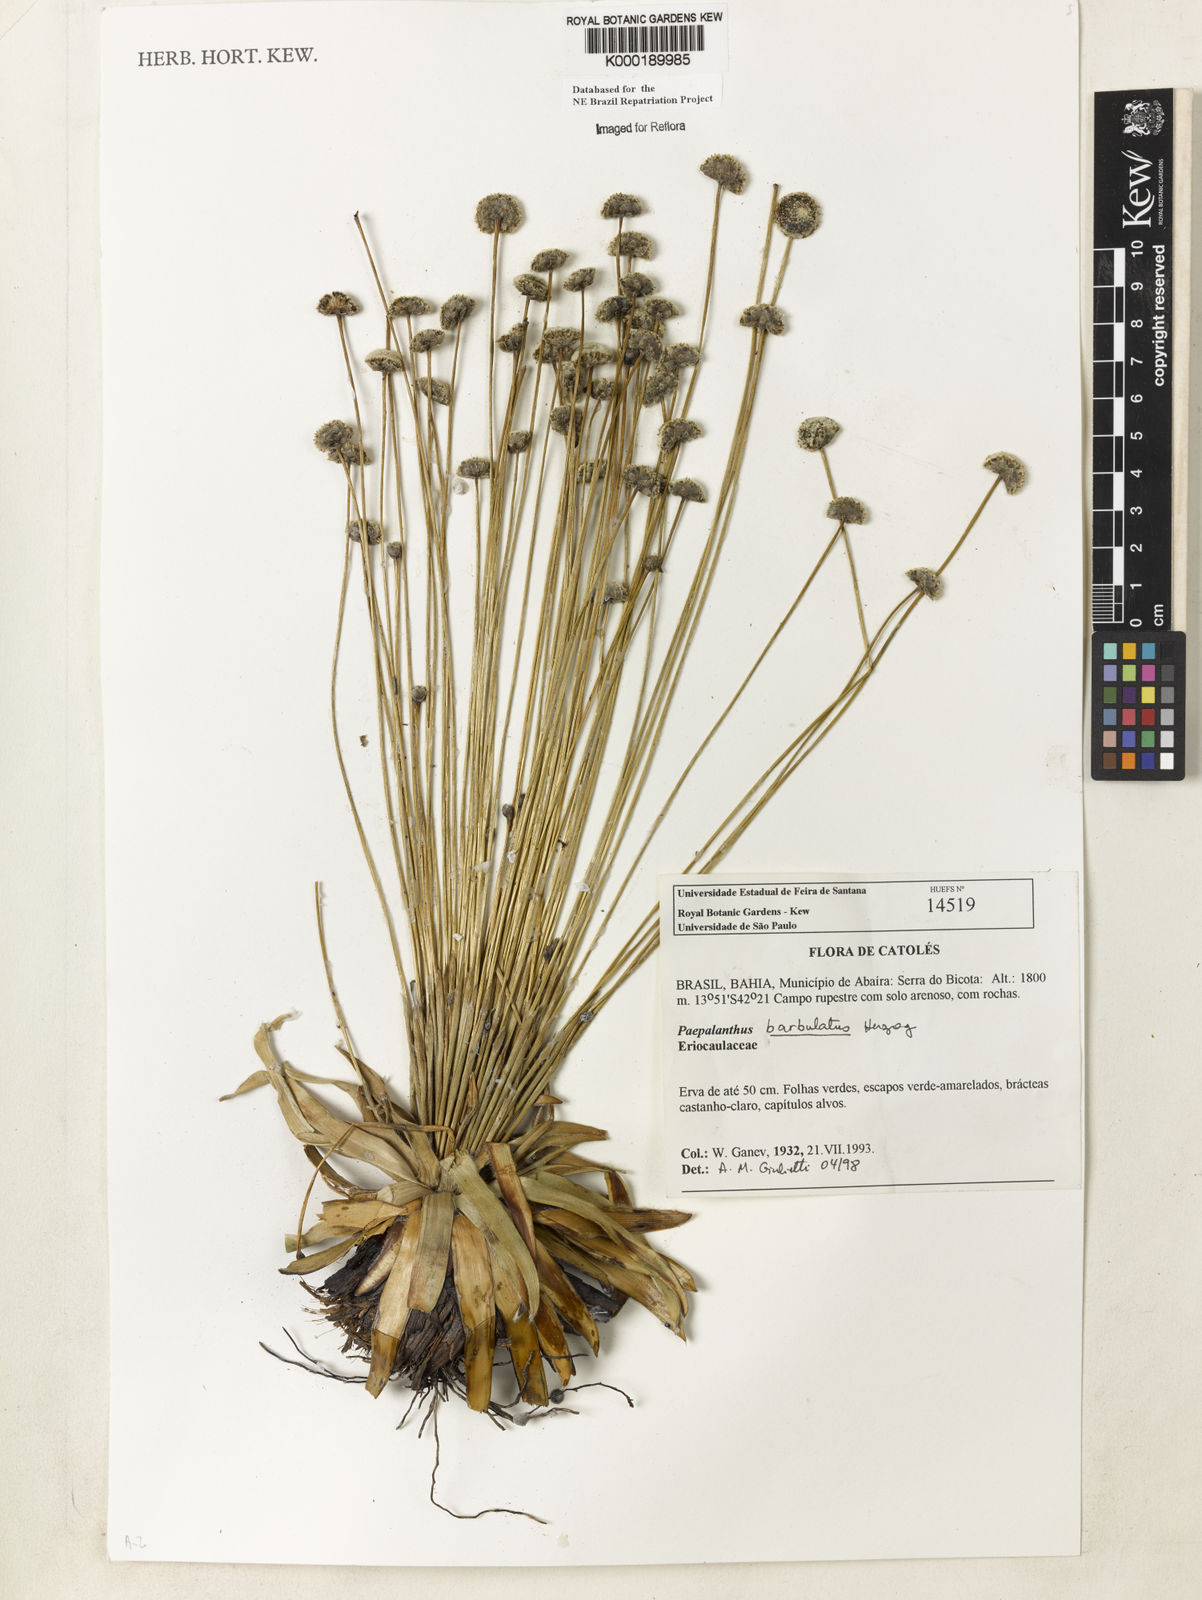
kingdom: Plantae
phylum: Tracheophyta
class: Liliopsida
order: Poales
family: Eriocaulaceae
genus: Paepalanthus
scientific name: Paepalanthus barbulatus
